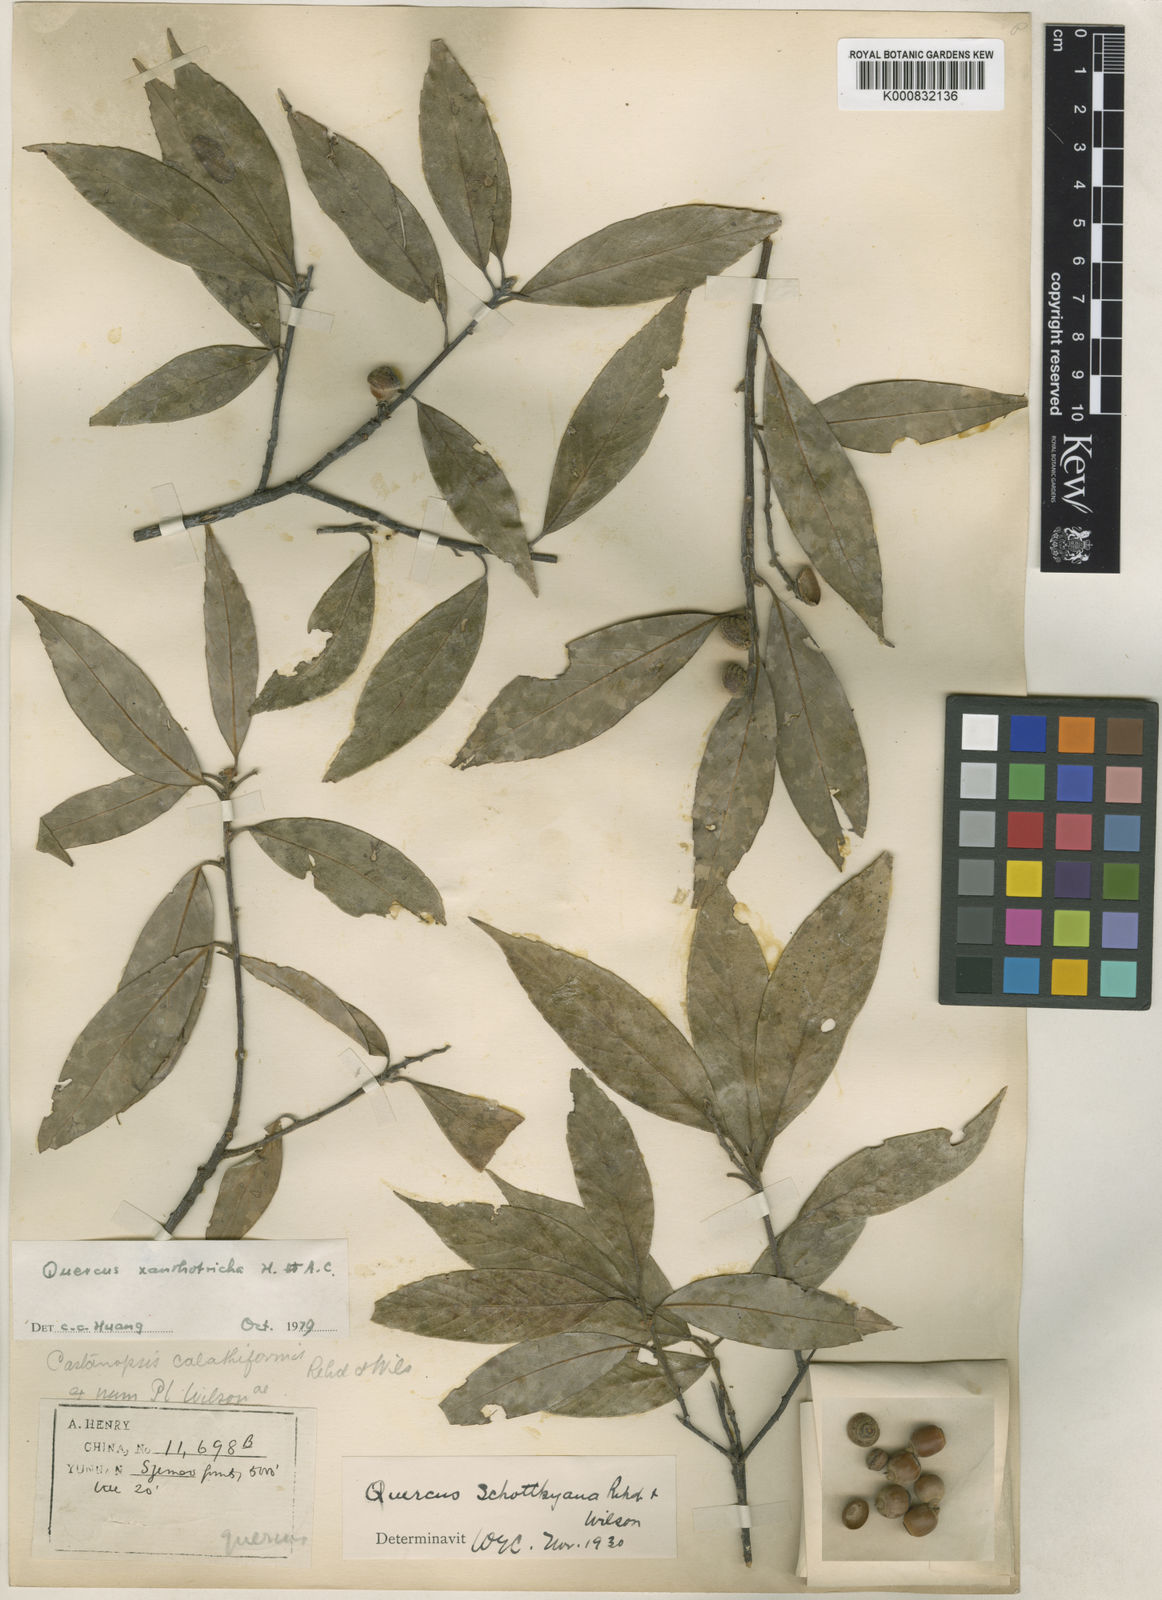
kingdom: Plantae
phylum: Tracheophyta
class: Magnoliopsida
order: Fagales
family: Fagaceae
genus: Quercus
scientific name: Quercus xanthotricha
